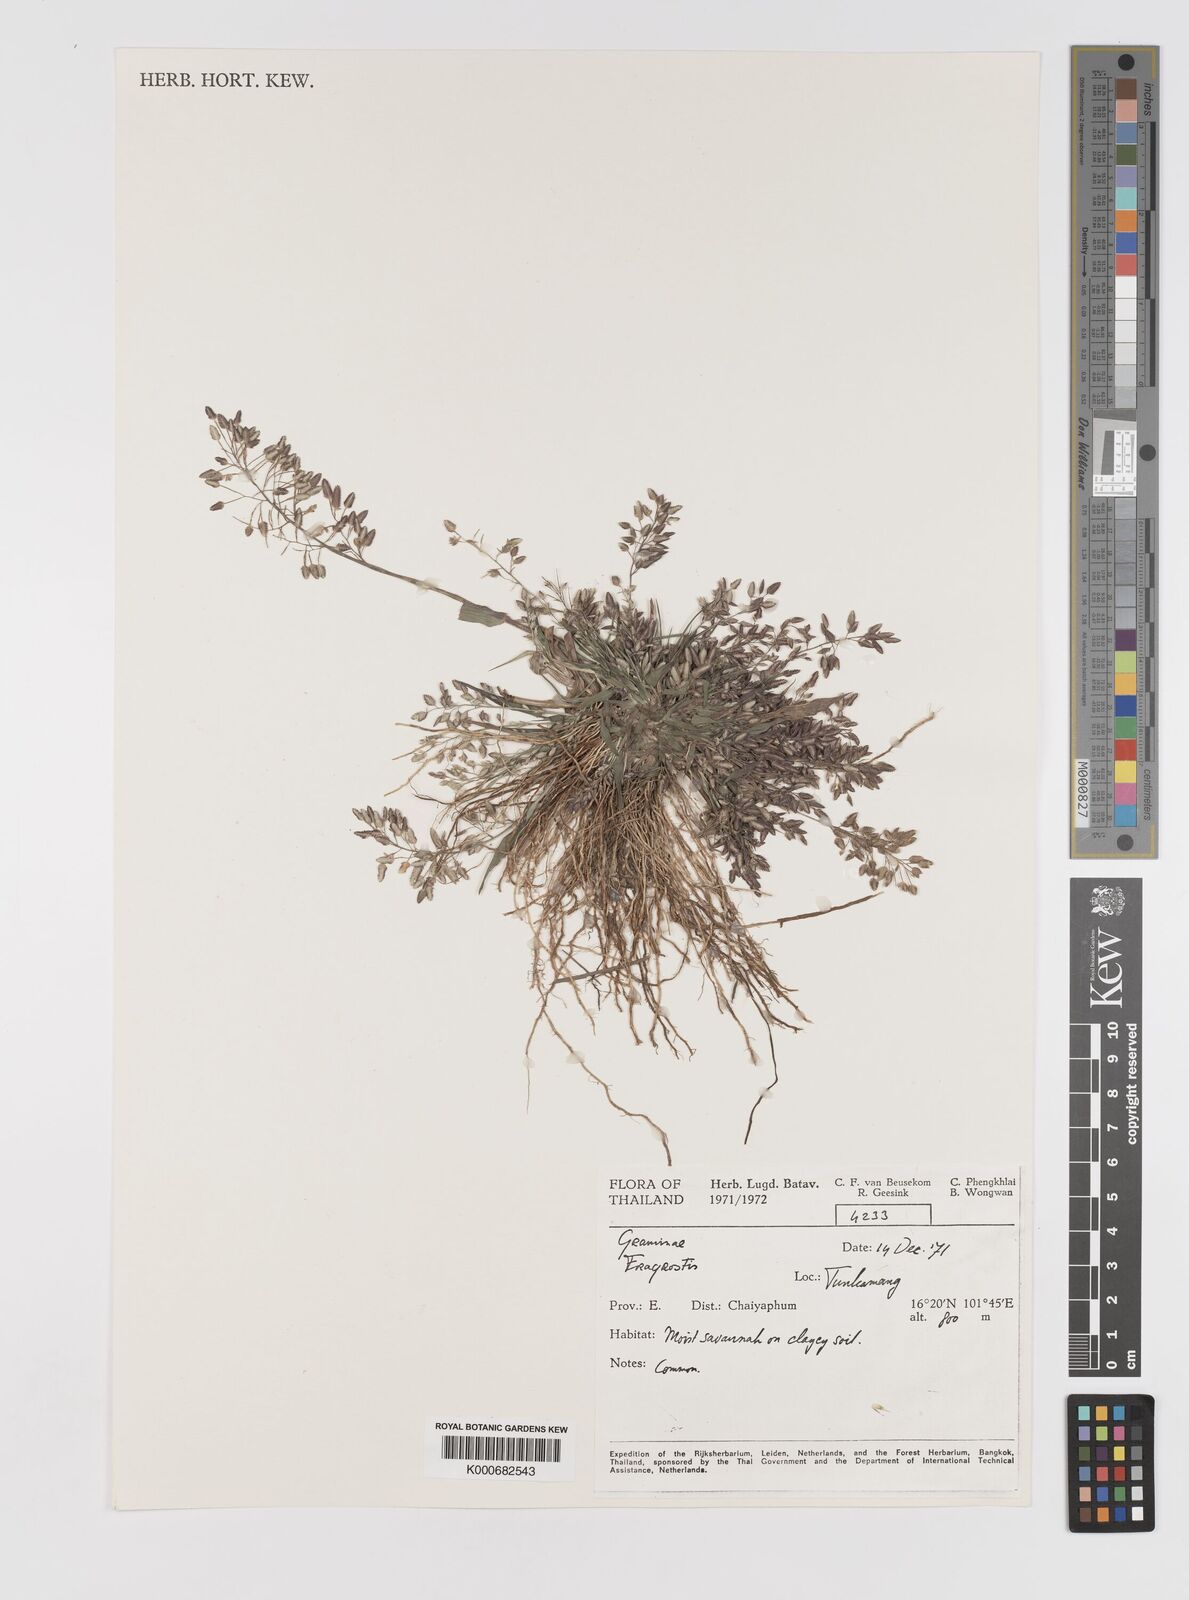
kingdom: Plantae
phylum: Tracheophyta
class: Liliopsida
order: Poales
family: Poaceae
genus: Eragrostis
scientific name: Eragrostis unioloides
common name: Chinese lovegrass
